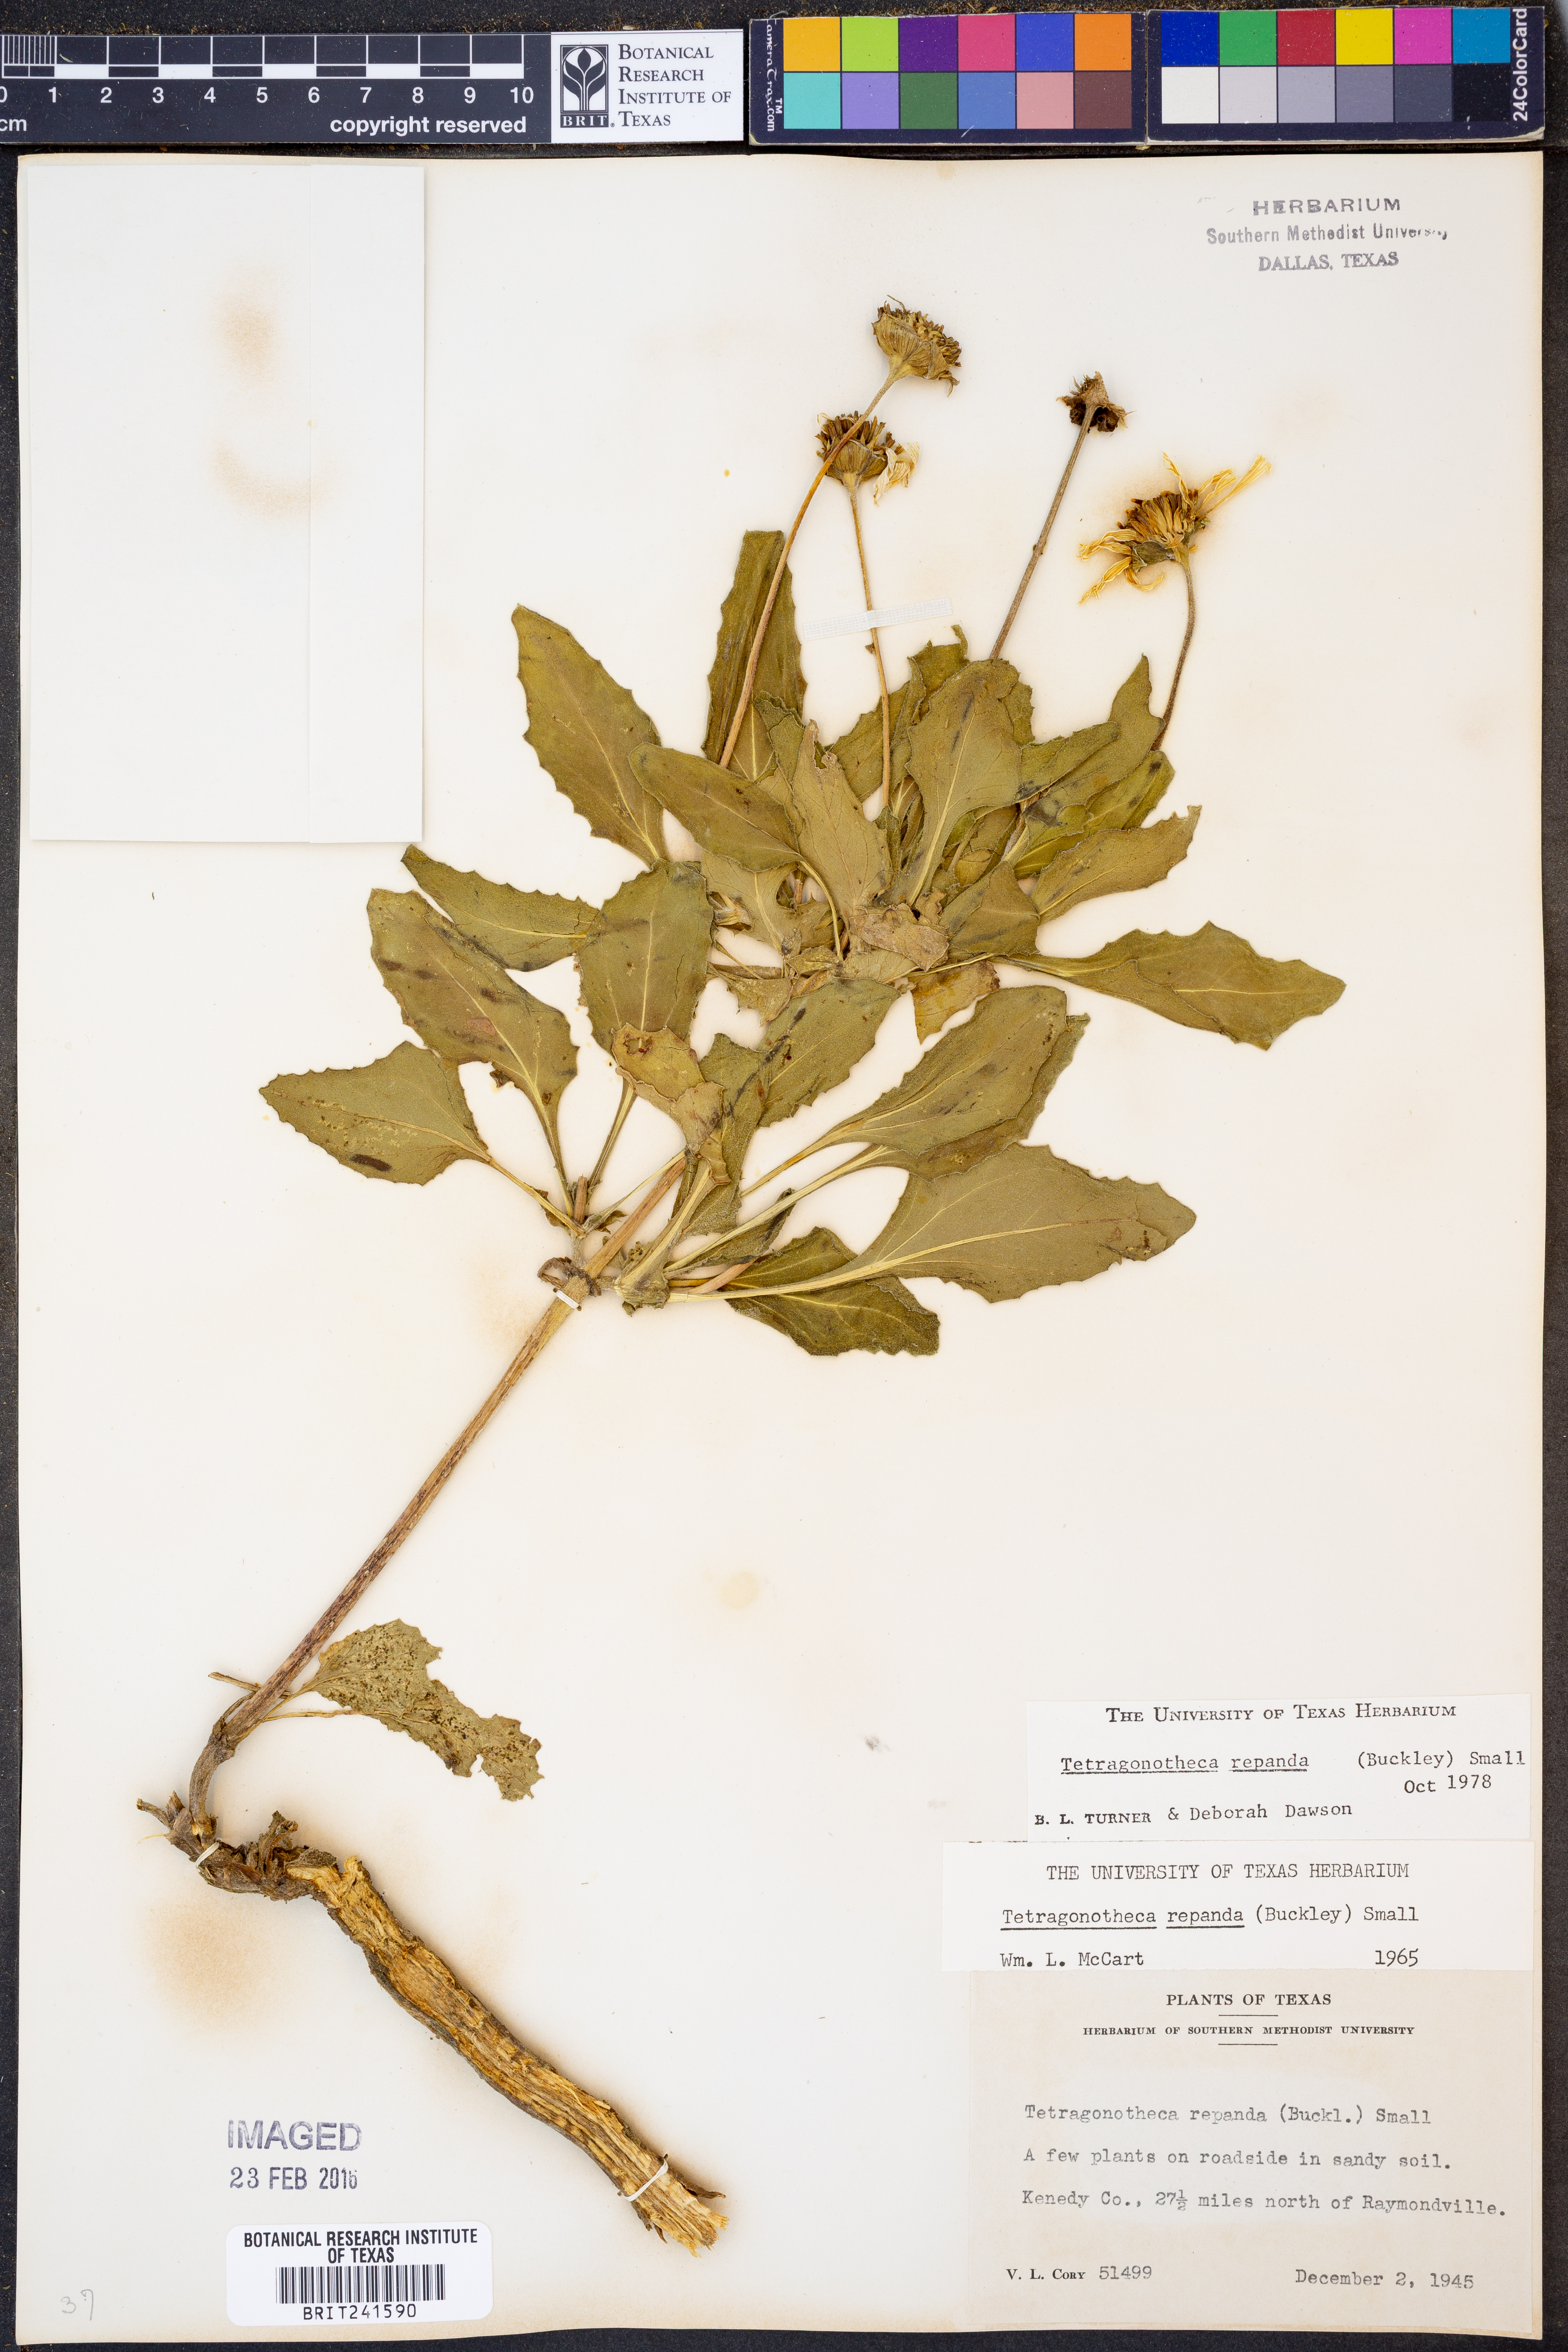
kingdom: Plantae
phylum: Tracheophyta
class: Magnoliopsida
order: Asterales
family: Asteraceae
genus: Tetragonotheca
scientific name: Tetragonotheca repanda
